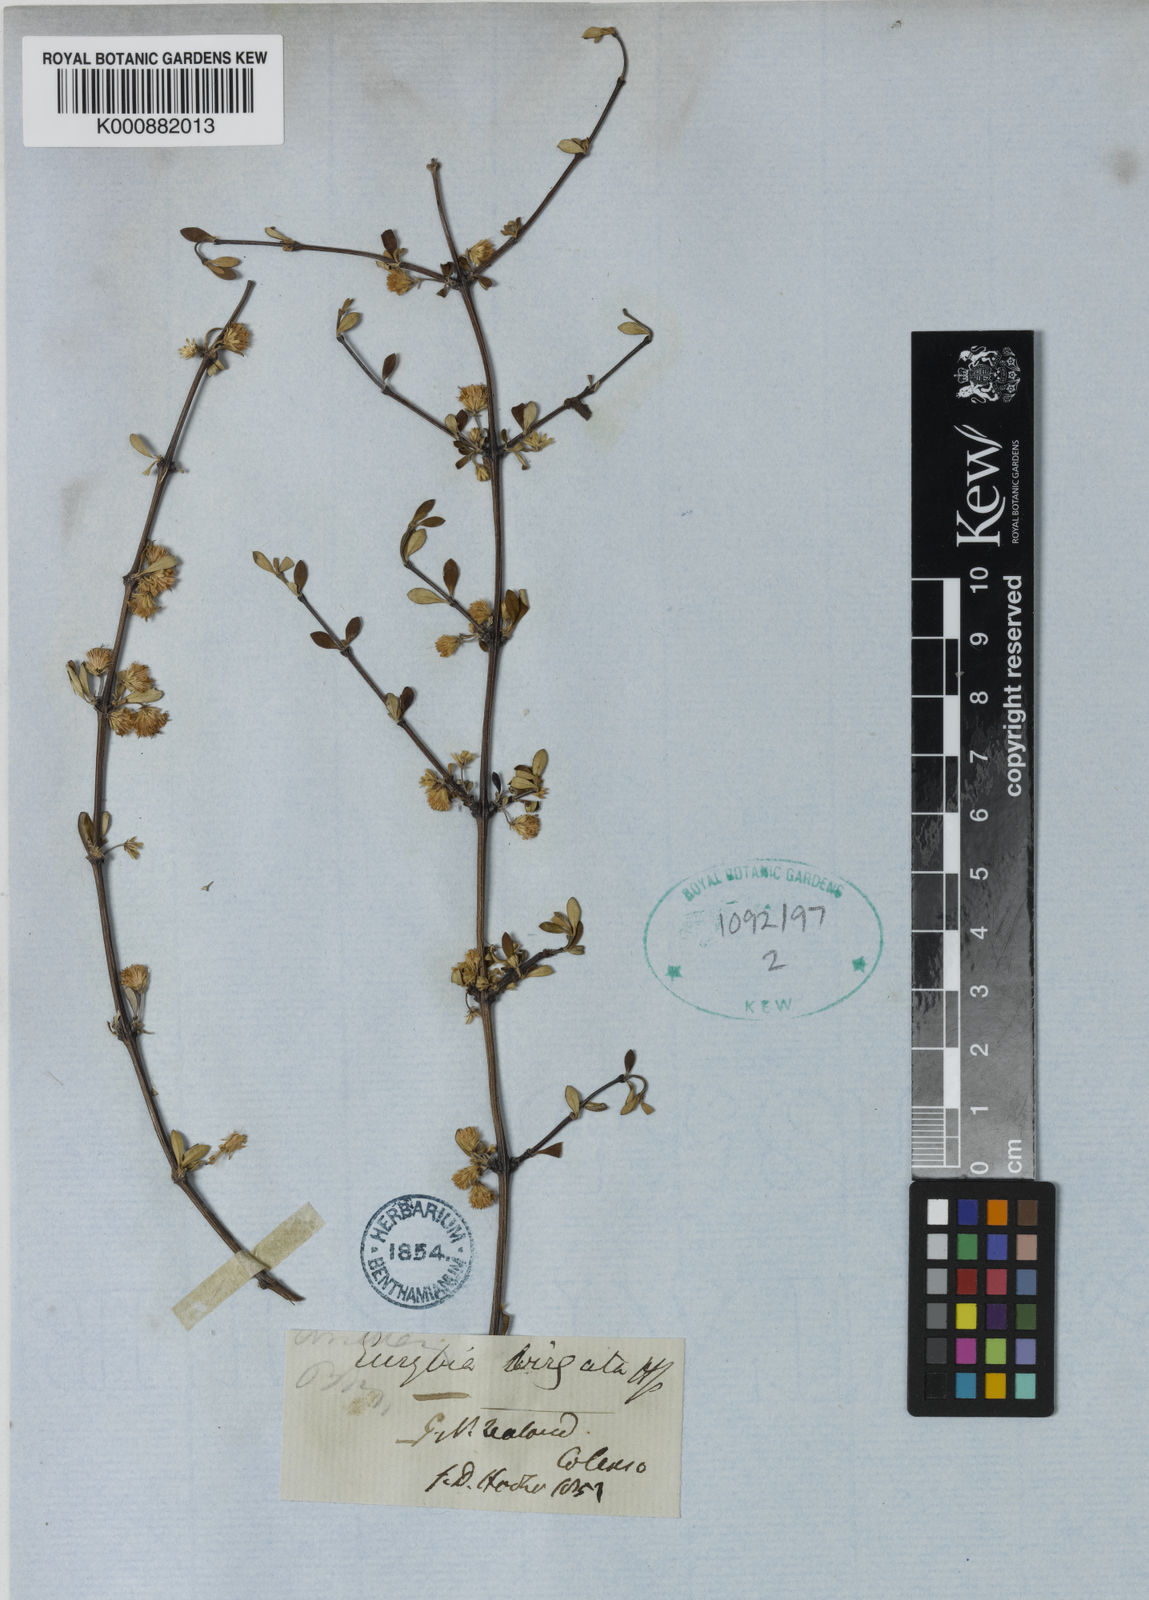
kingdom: Plantae
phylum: Tracheophyta
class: Magnoliopsida
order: Asterales
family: Asteraceae
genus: Olearia
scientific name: Olearia virgata
